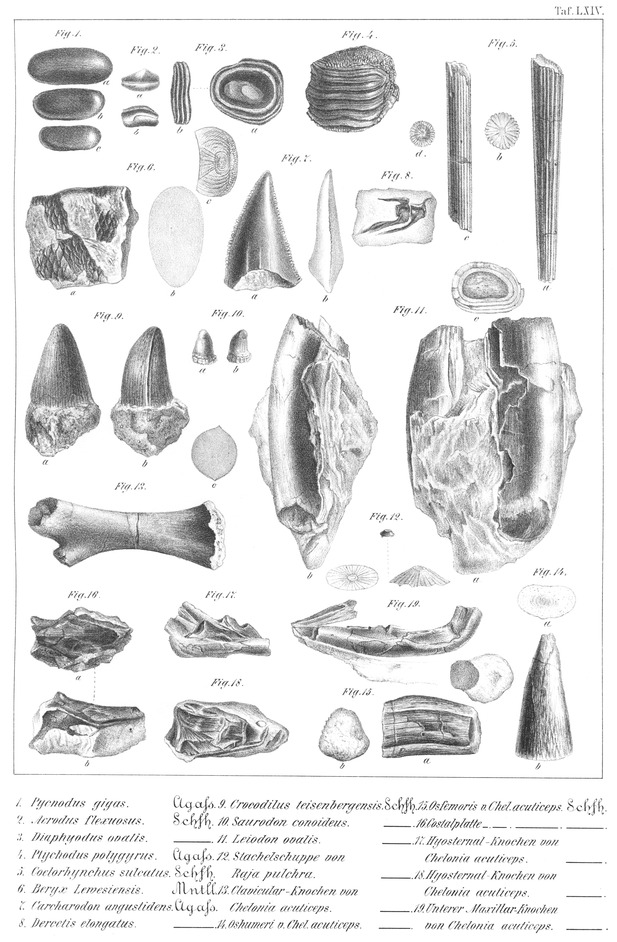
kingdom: Animalia
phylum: Chordata
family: Pycnodontidae
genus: Pycnodus
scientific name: Pycnodus
